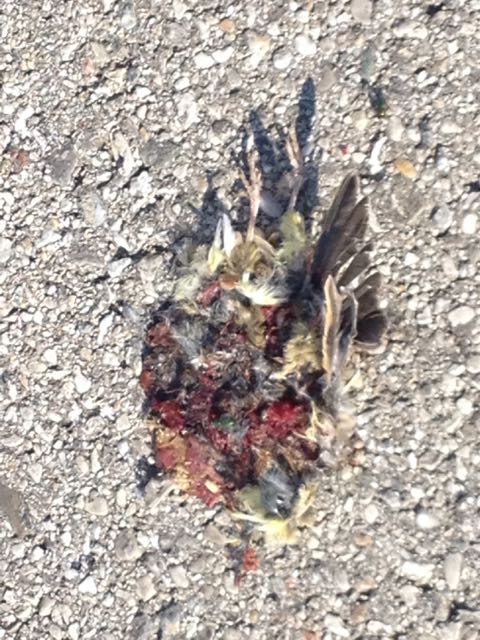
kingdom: Animalia
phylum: Chordata
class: Aves
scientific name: Aves
